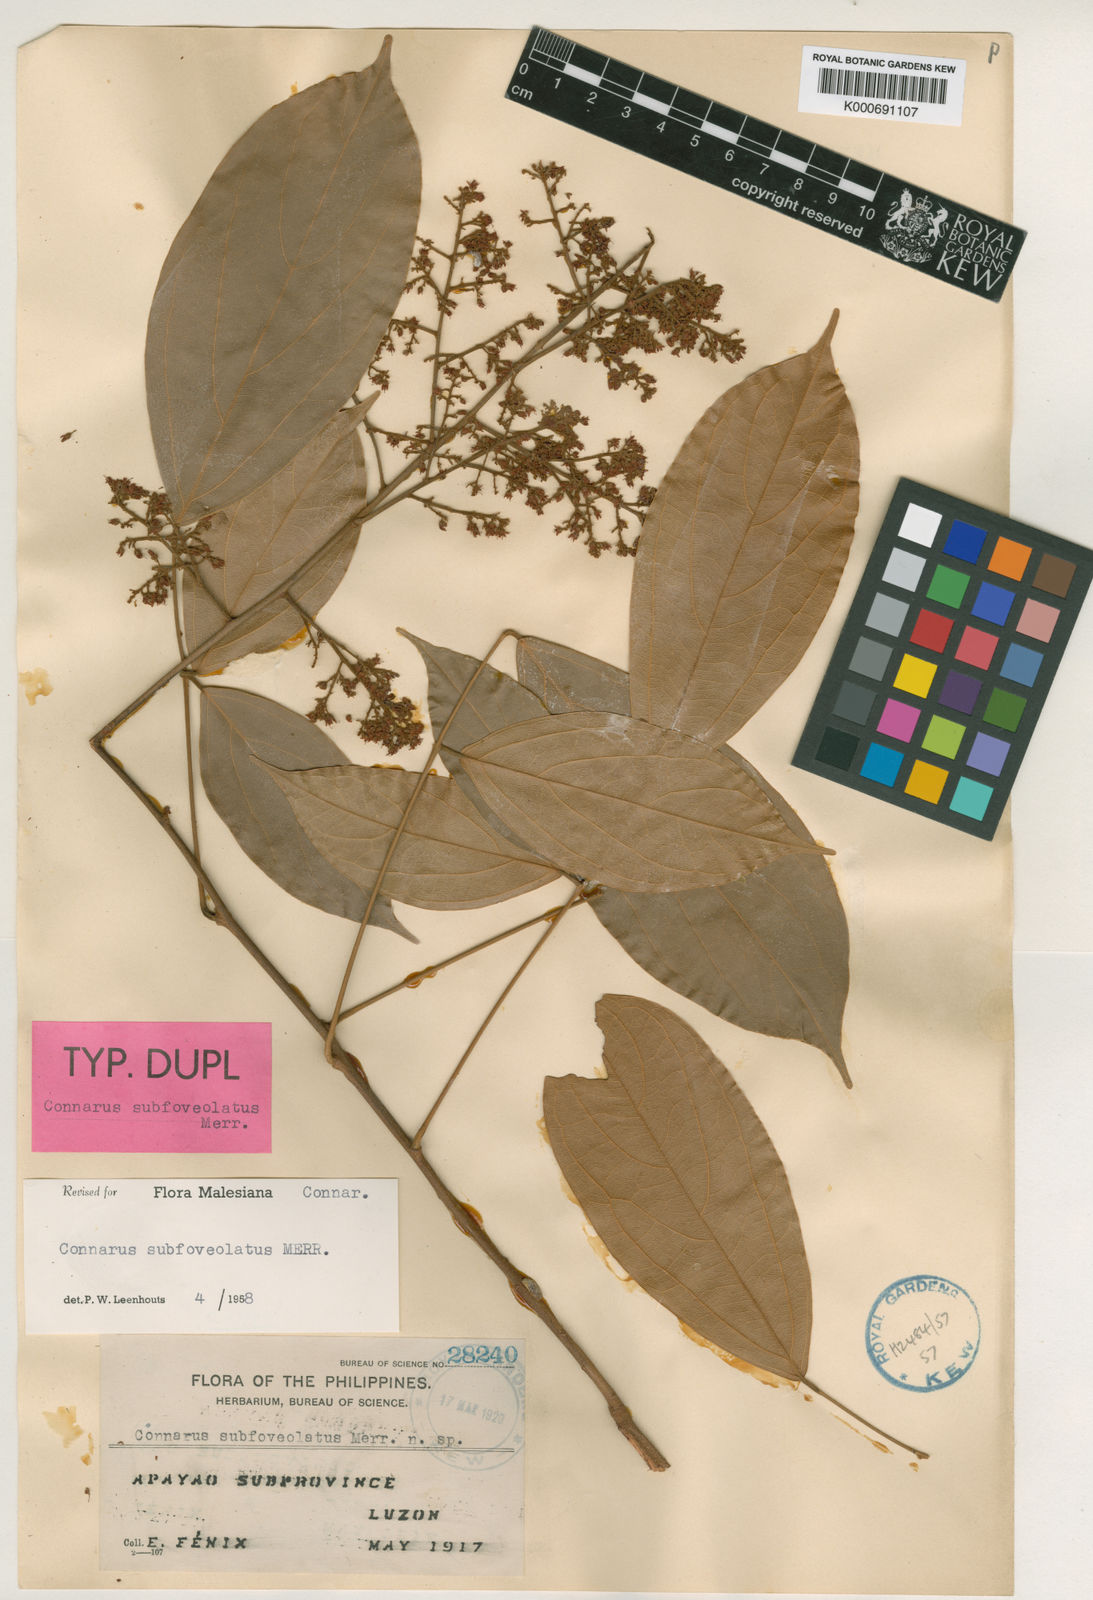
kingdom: Plantae
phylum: Tracheophyta
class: Magnoliopsida
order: Oxalidales
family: Connaraceae
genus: Connarus
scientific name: Connarus subfoveolatus
